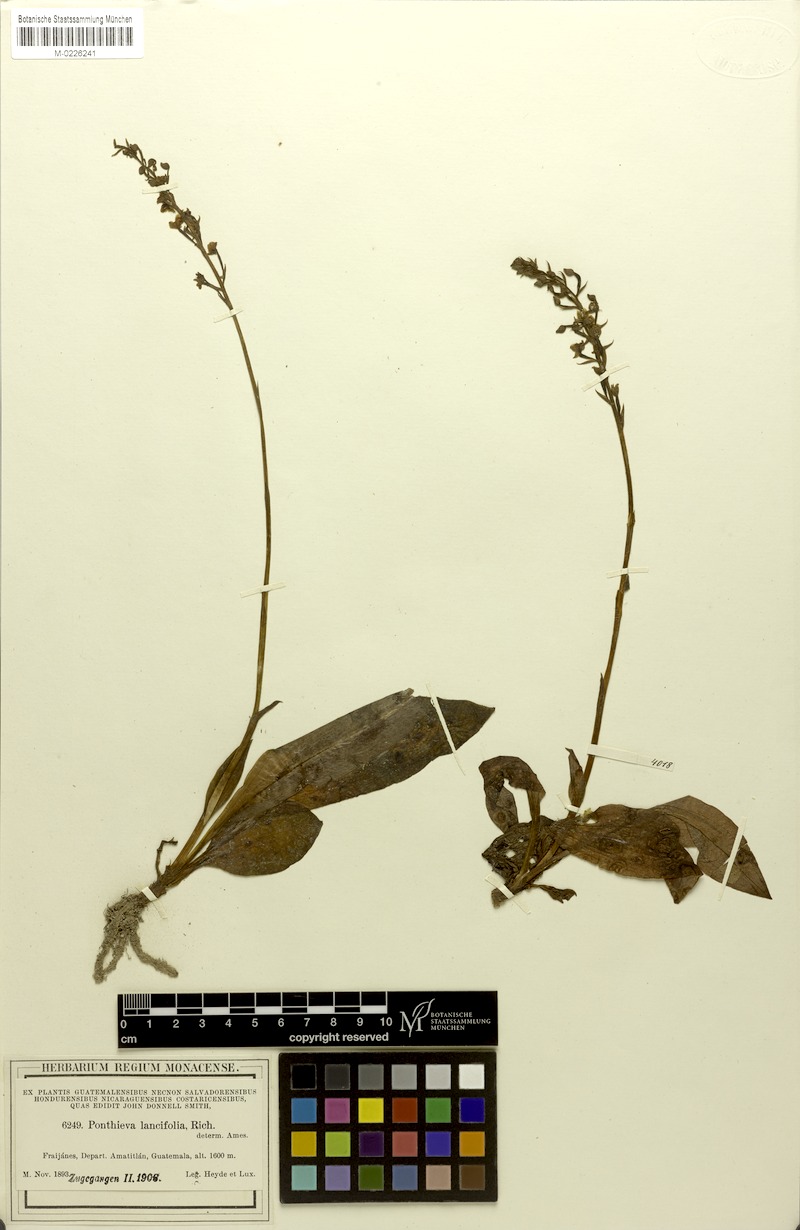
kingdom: Plantae
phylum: Tracheophyta
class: Liliopsida
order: Asparagales
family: Orchidaceae
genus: Ponthieva
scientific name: Ponthieva racemosa
